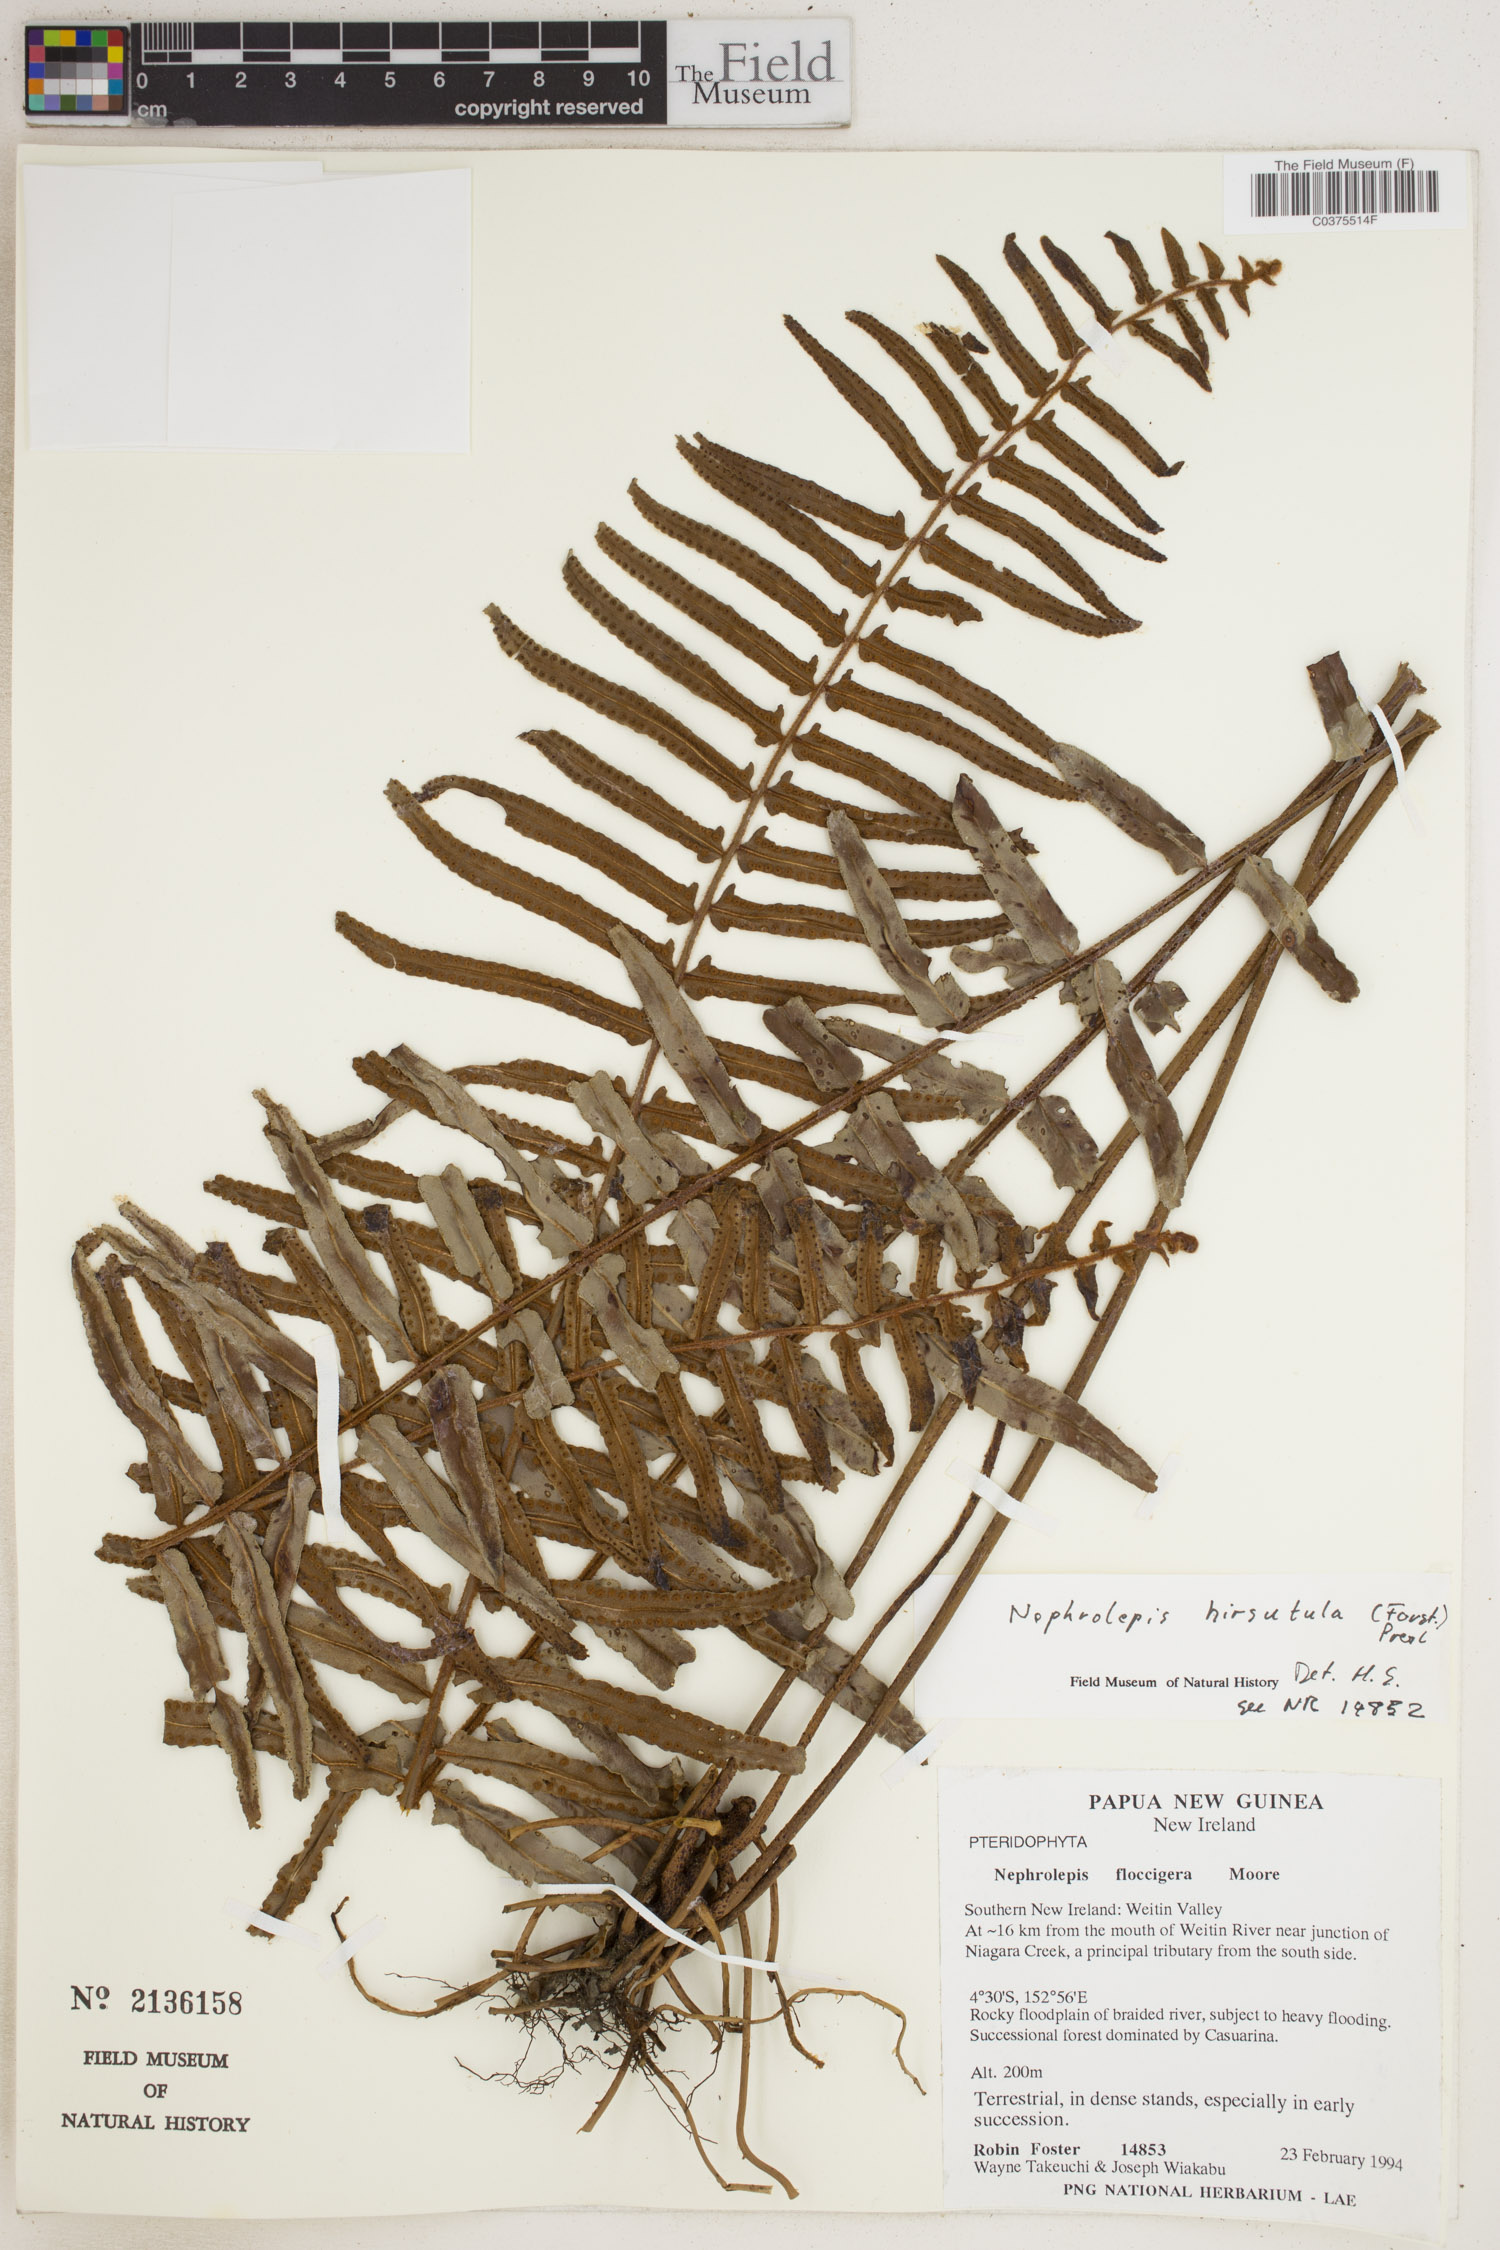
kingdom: Plantae
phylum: Tracheophyta
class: Polypodiopsida
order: Polypodiales
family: Nephrolepidaceae
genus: Nephrolepis
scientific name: Nephrolepis hirsutula
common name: Asian sword fern
